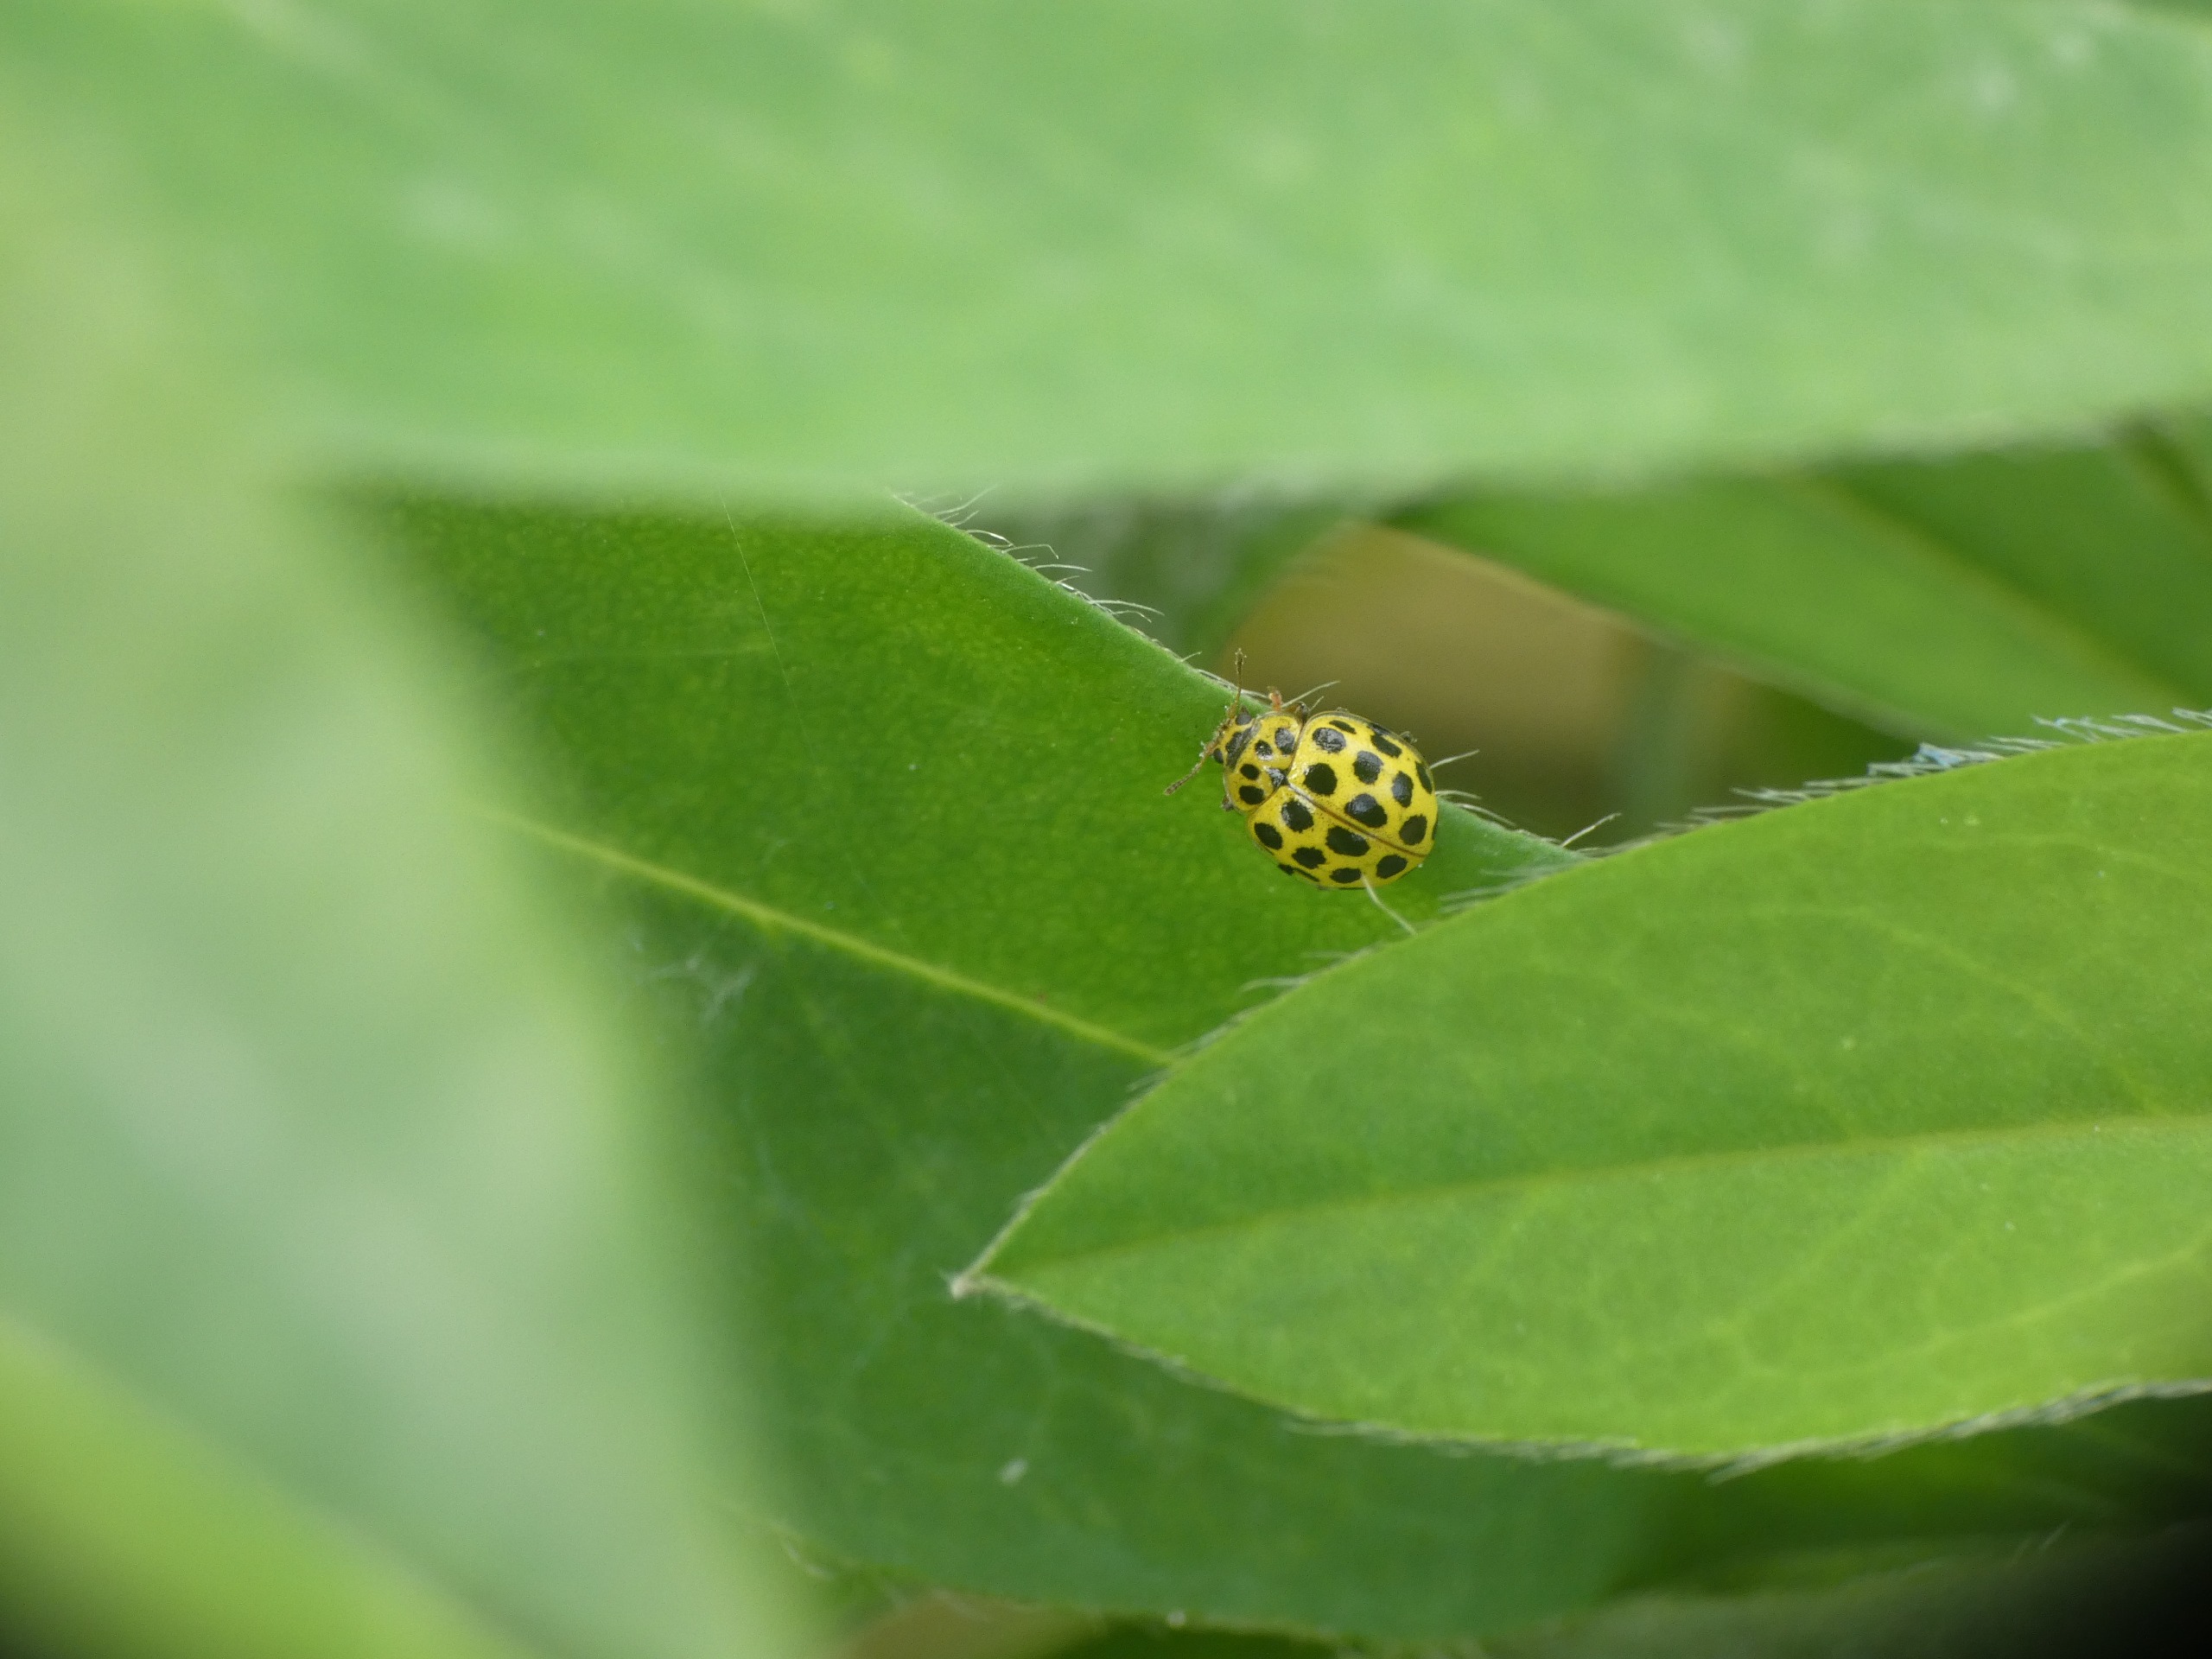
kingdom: Animalia
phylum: Arthropoda
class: Insecta
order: Coleoptera
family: Coccinellidae
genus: Psyllobora
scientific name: Psyllobora vigintiduopunctata
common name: Toogtyveplettet mariehøne
